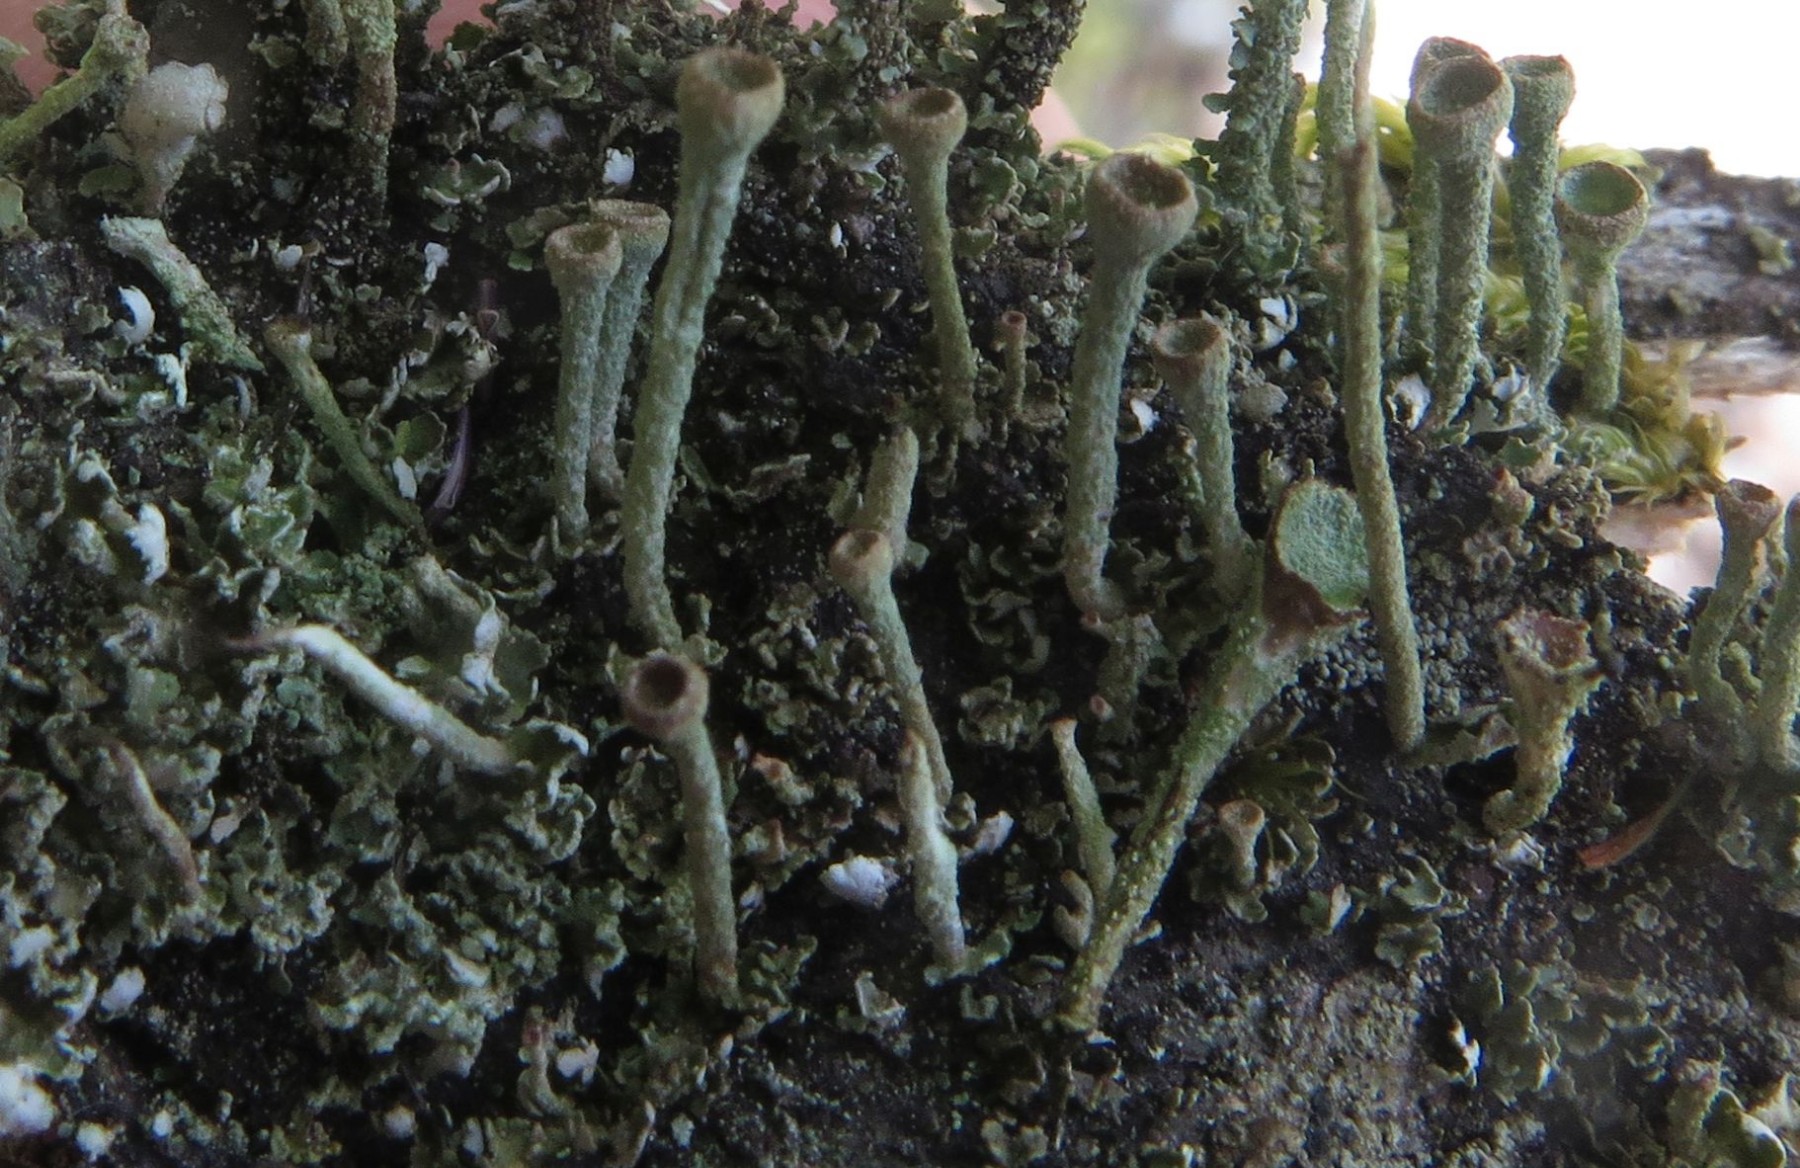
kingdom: Fungi
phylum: Ascomycota
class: Lecanoromycetes
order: Lecanorales
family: Cladoniaceae
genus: Cladonia
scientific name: Cladonia fimbriata
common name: bleggrøn bægerlav
